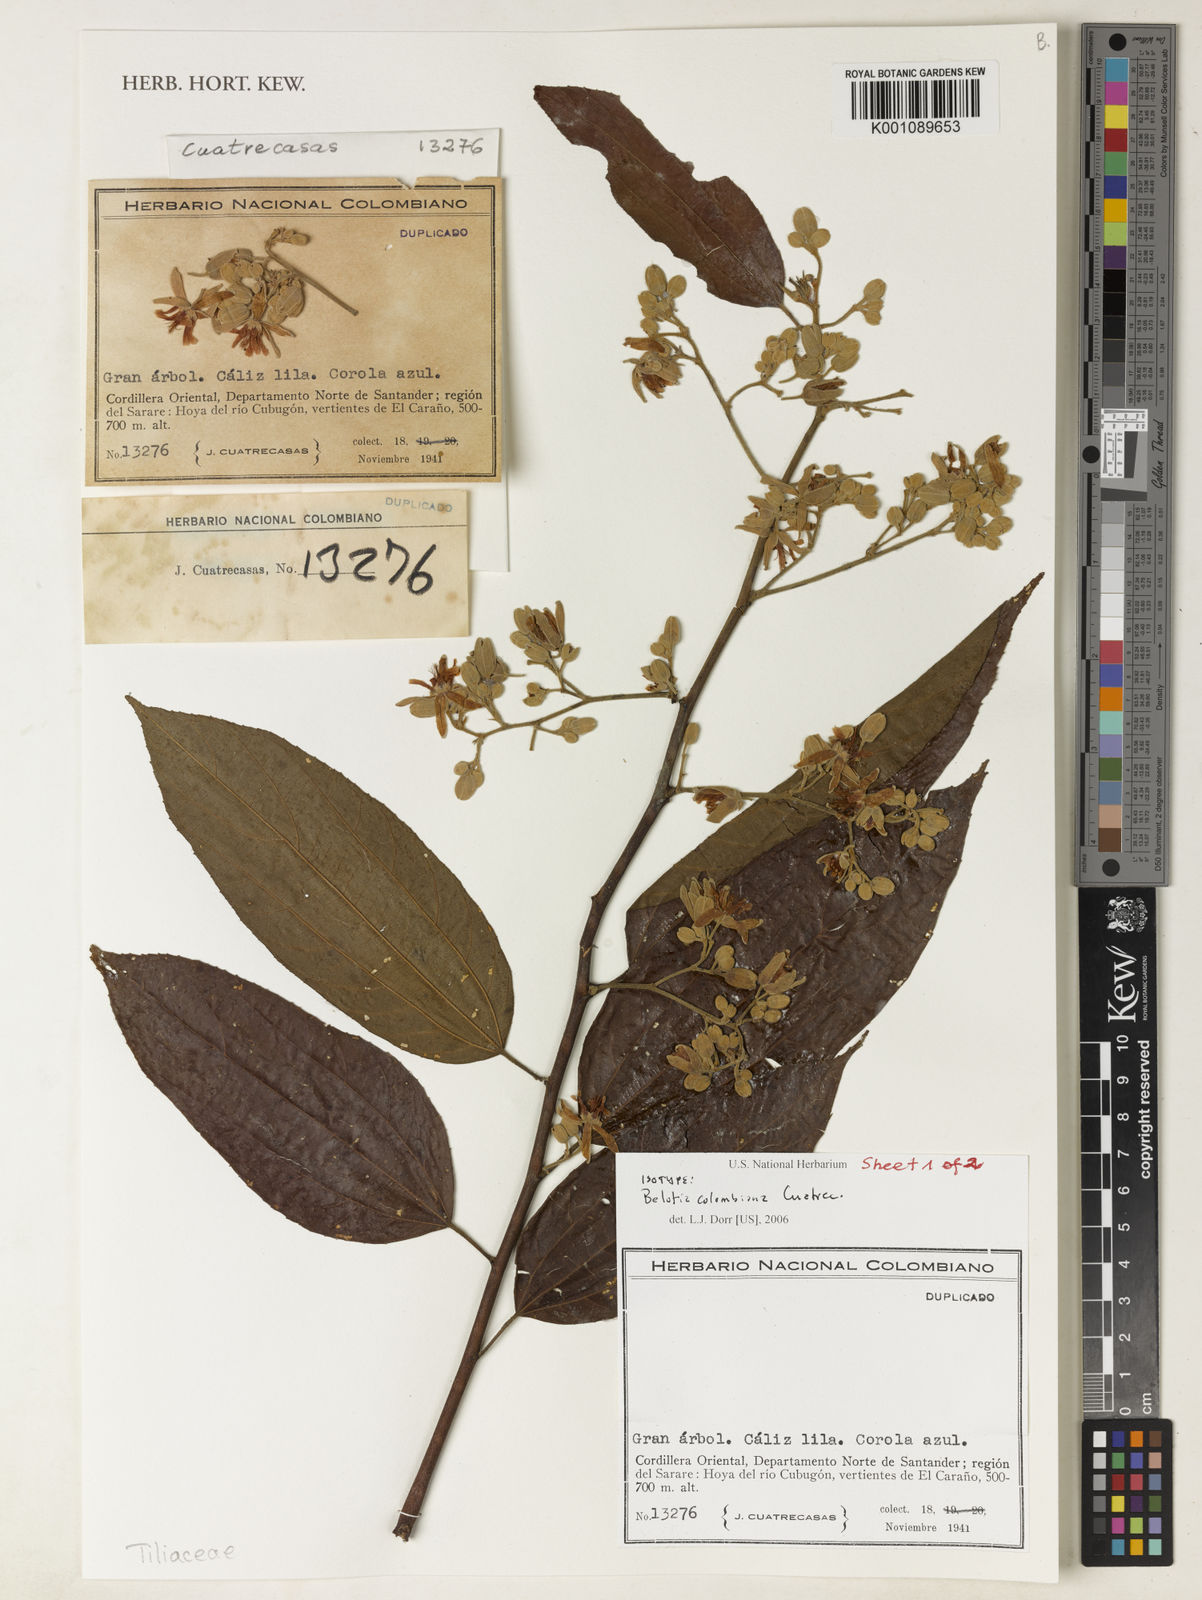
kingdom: Plantae
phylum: Tracheophyta
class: Magnoliopsida
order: Malvales
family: Malvaceae
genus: Trichospermum
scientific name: Trichospermum mexicanum
